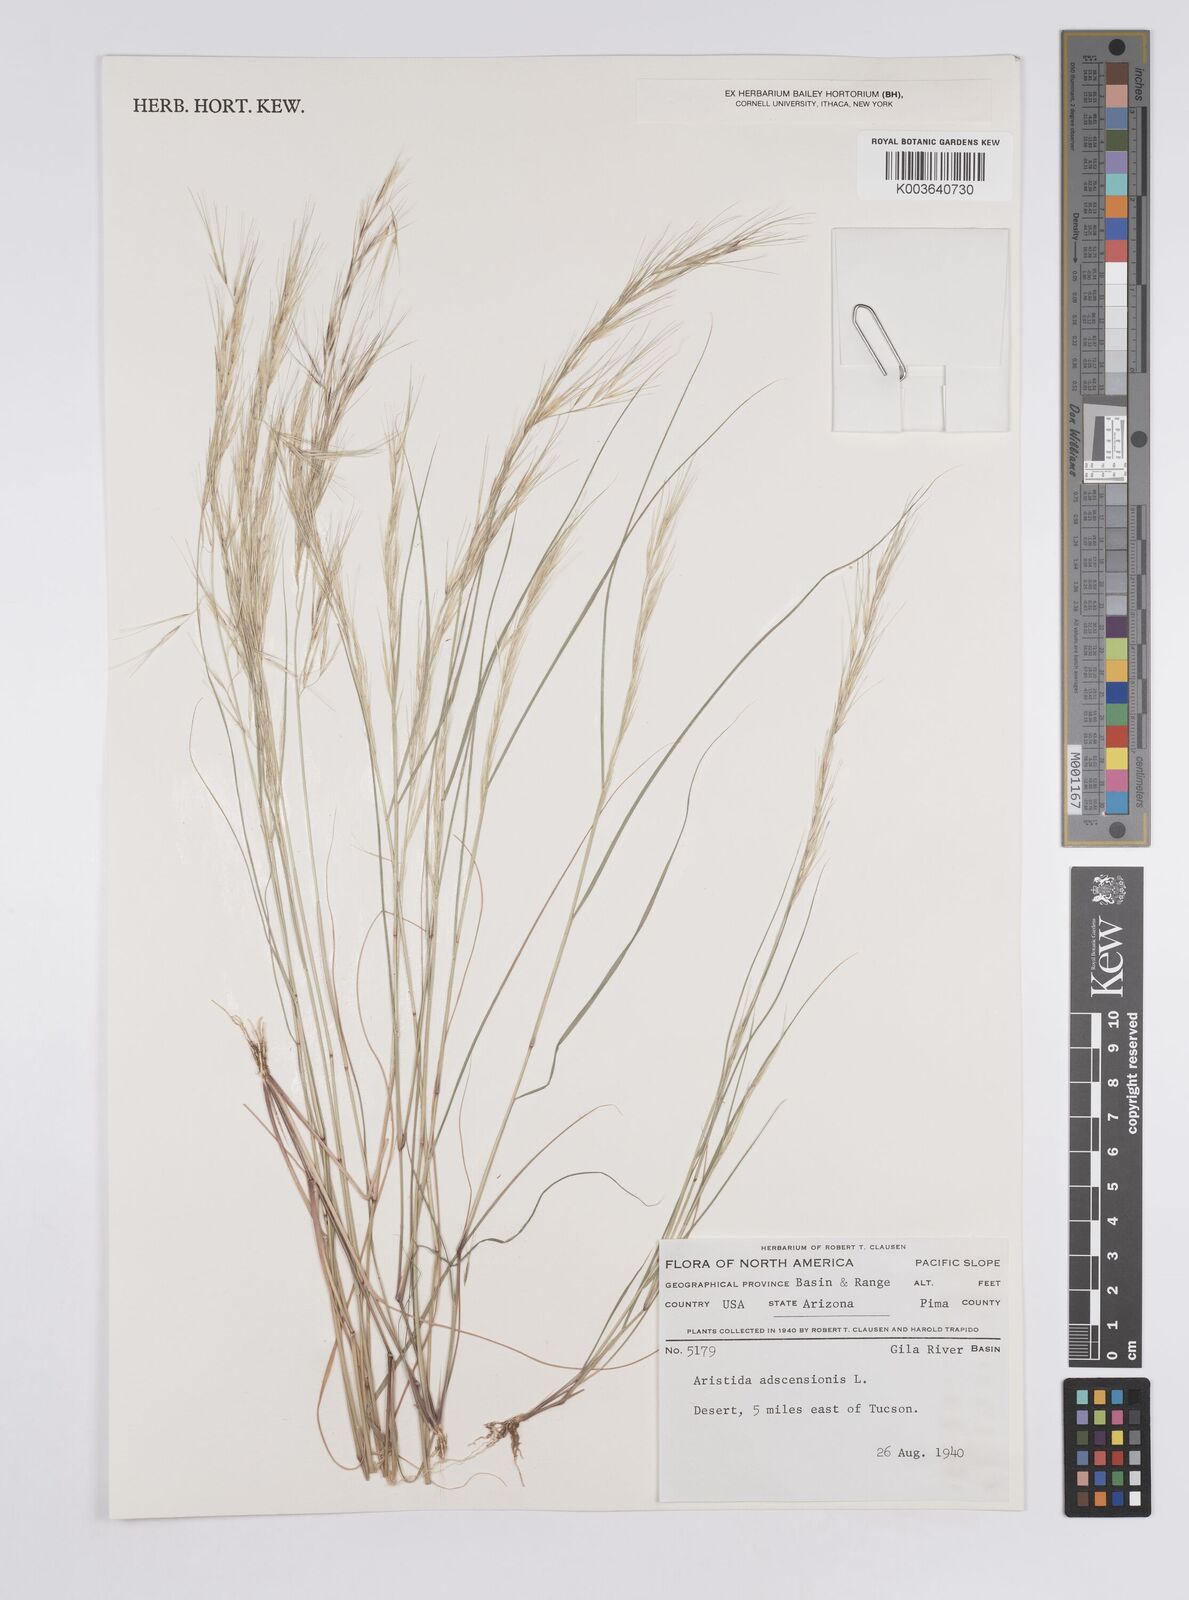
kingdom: Plantae
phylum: Tracheophyta
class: Liliopsida
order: Poales
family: Poaceae
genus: Aristida
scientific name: Aristida adscensionis
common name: Sixweeks threeawn
